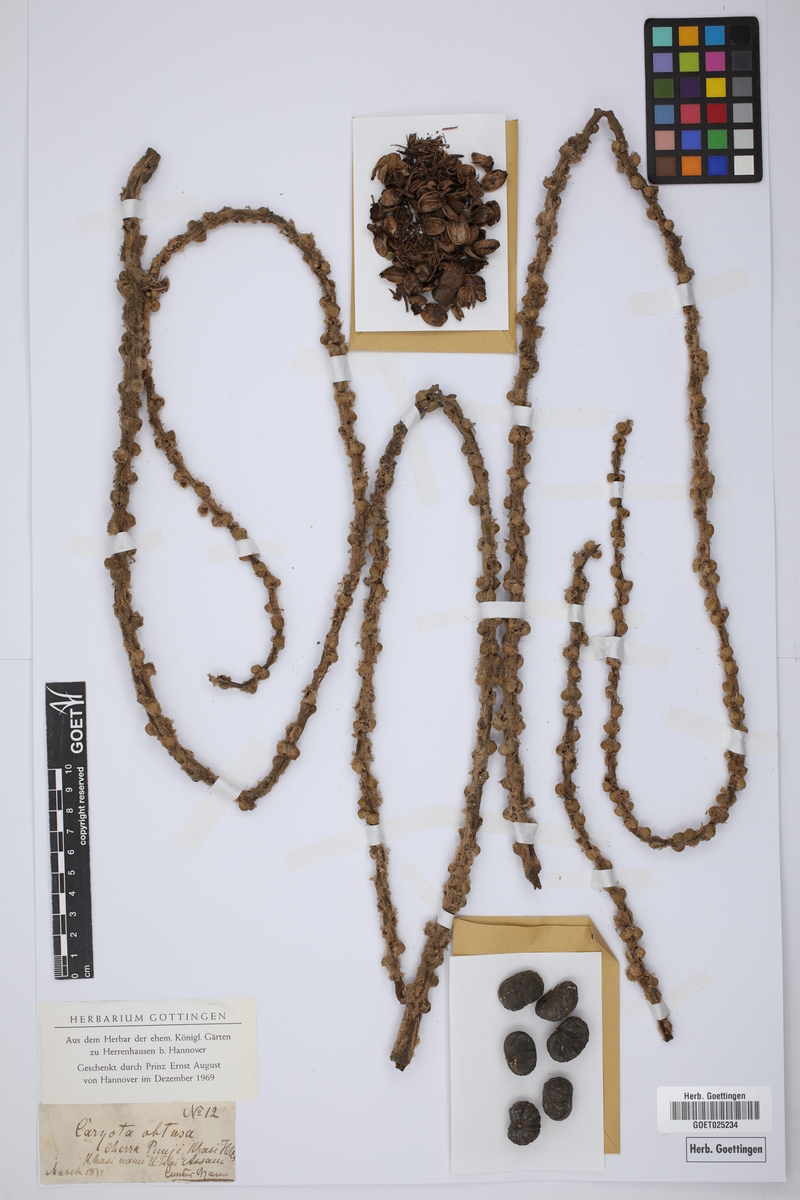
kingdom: Plantae
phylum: Tracheophyta
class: Liliopsida
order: Arecales
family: Arecaceae
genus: Caryota
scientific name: Caryota obtusa
